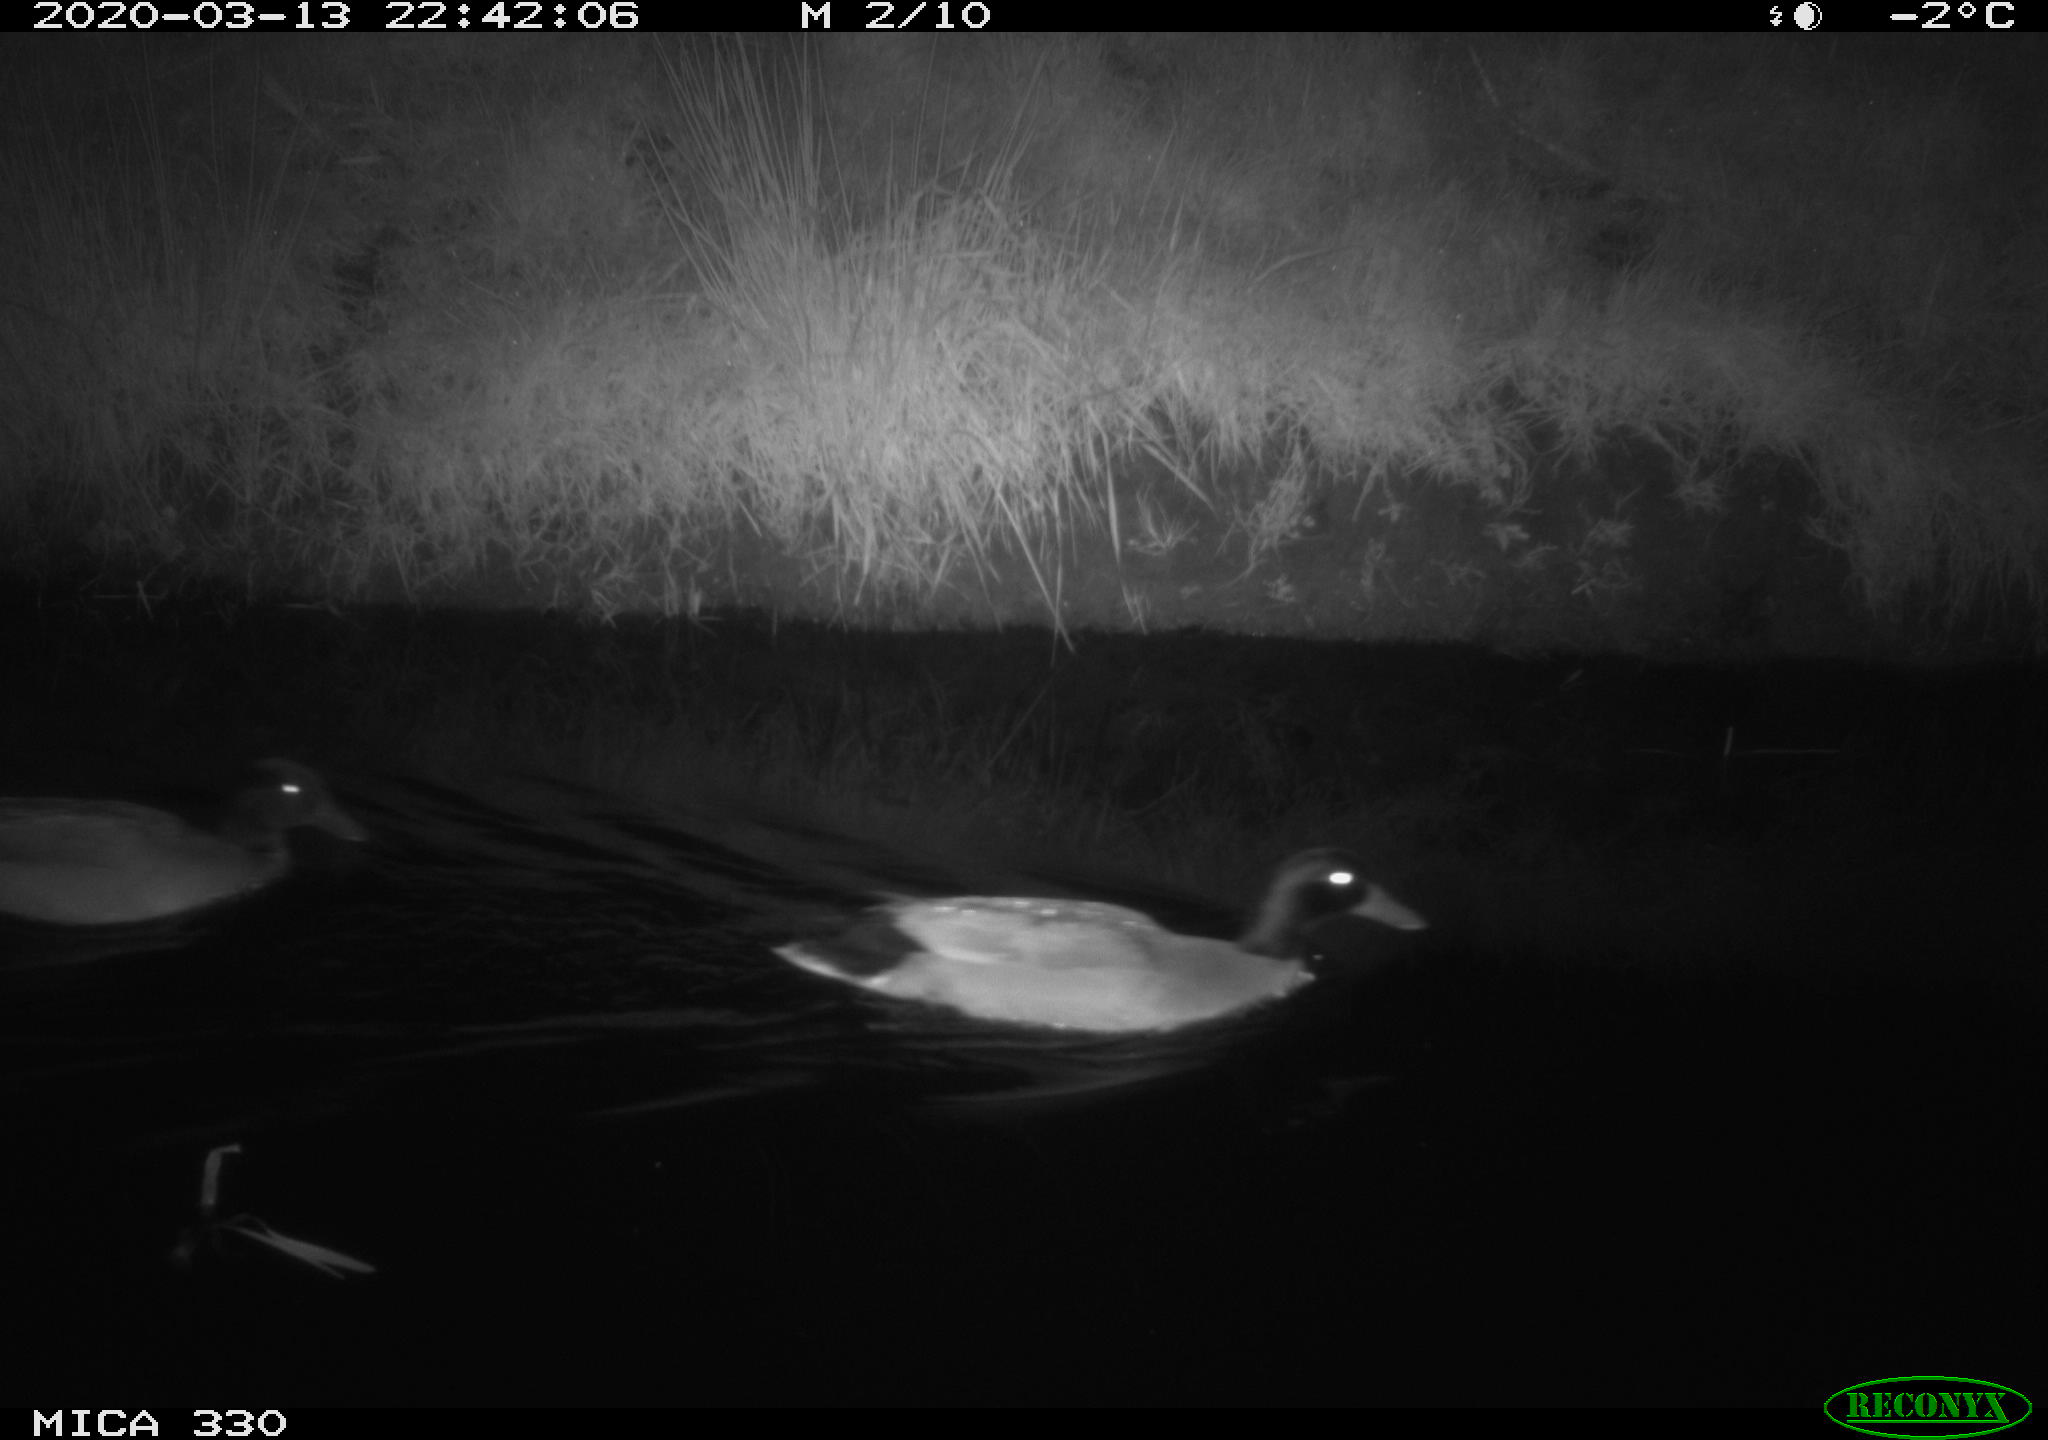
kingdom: Animalia
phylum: Chordata
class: Aves
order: Anseriformes
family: Anatidae
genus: Anas
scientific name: Anas platyrhynchos
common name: Mallard
